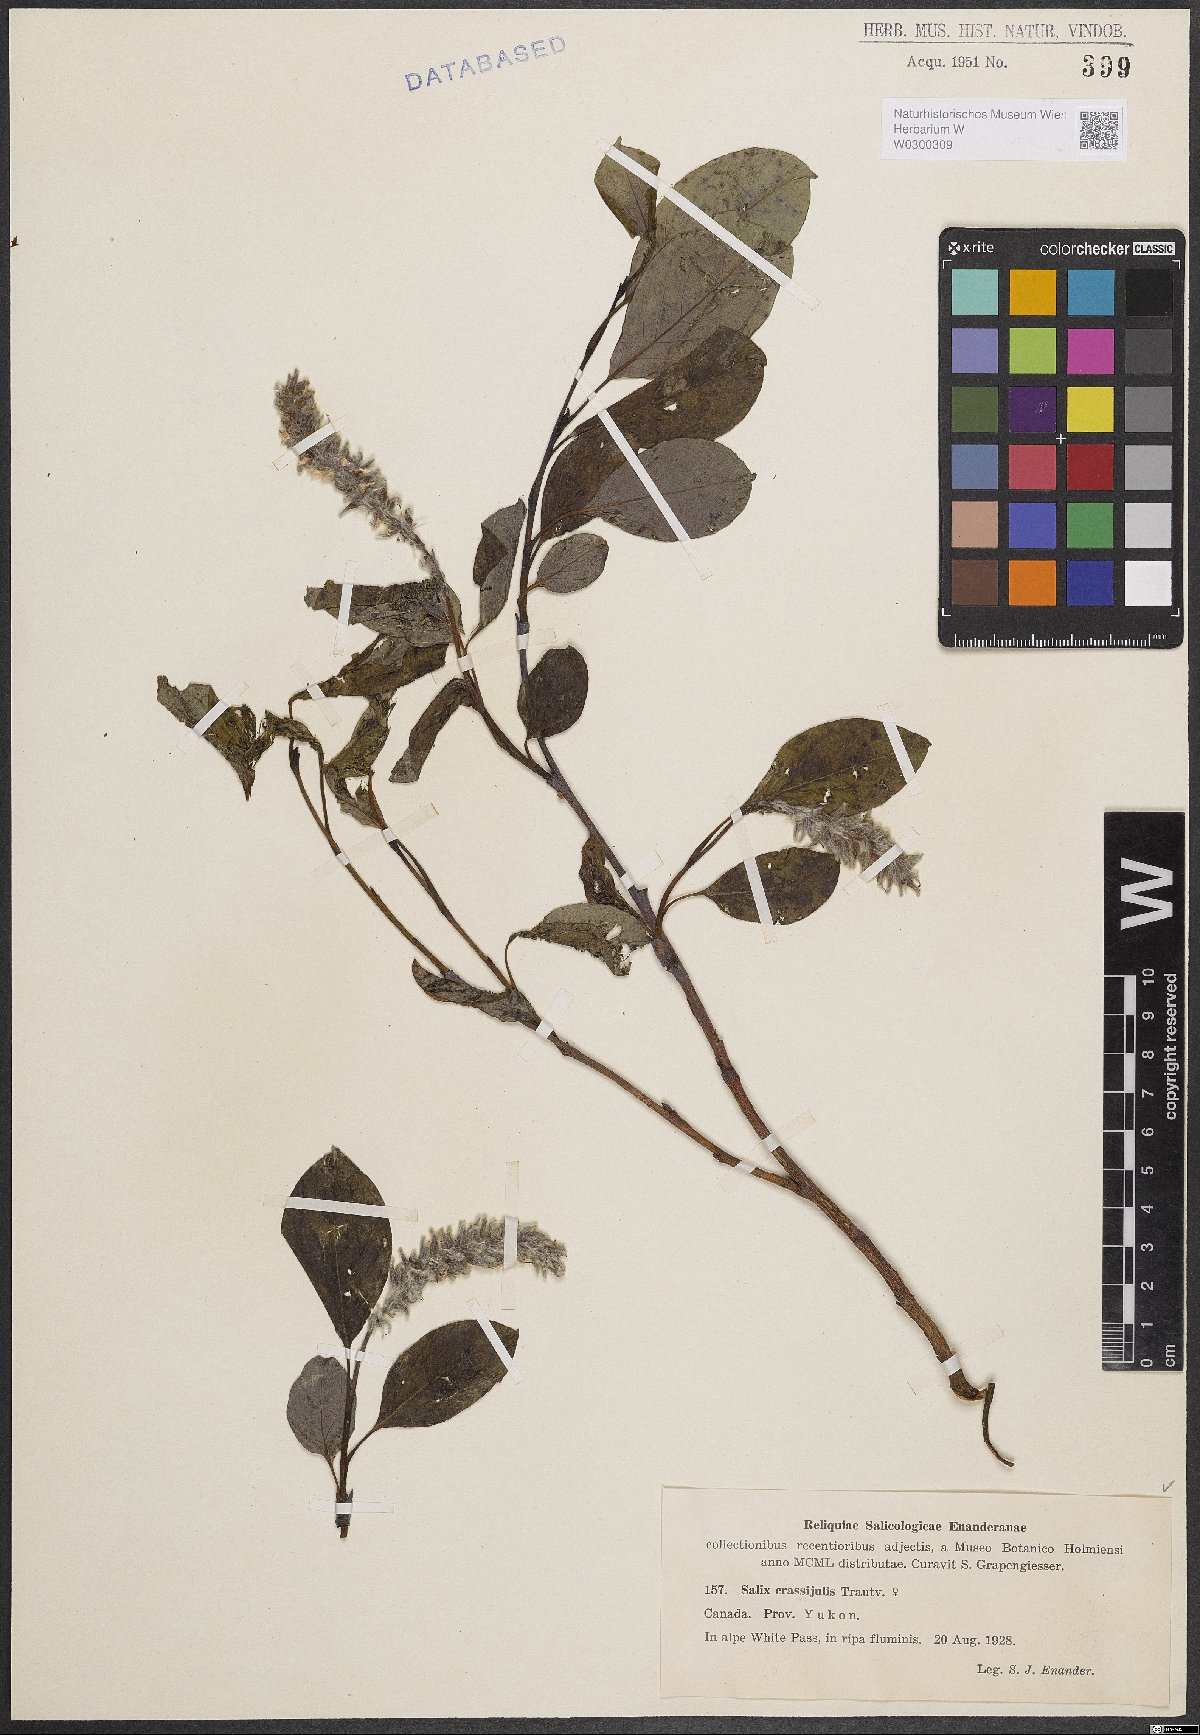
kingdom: Plantae
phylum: Tracheophyta
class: Magnoliopsida
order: Malpighiales
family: Salicaceae
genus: Salix
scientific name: Salix arctica
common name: Arctic willow
